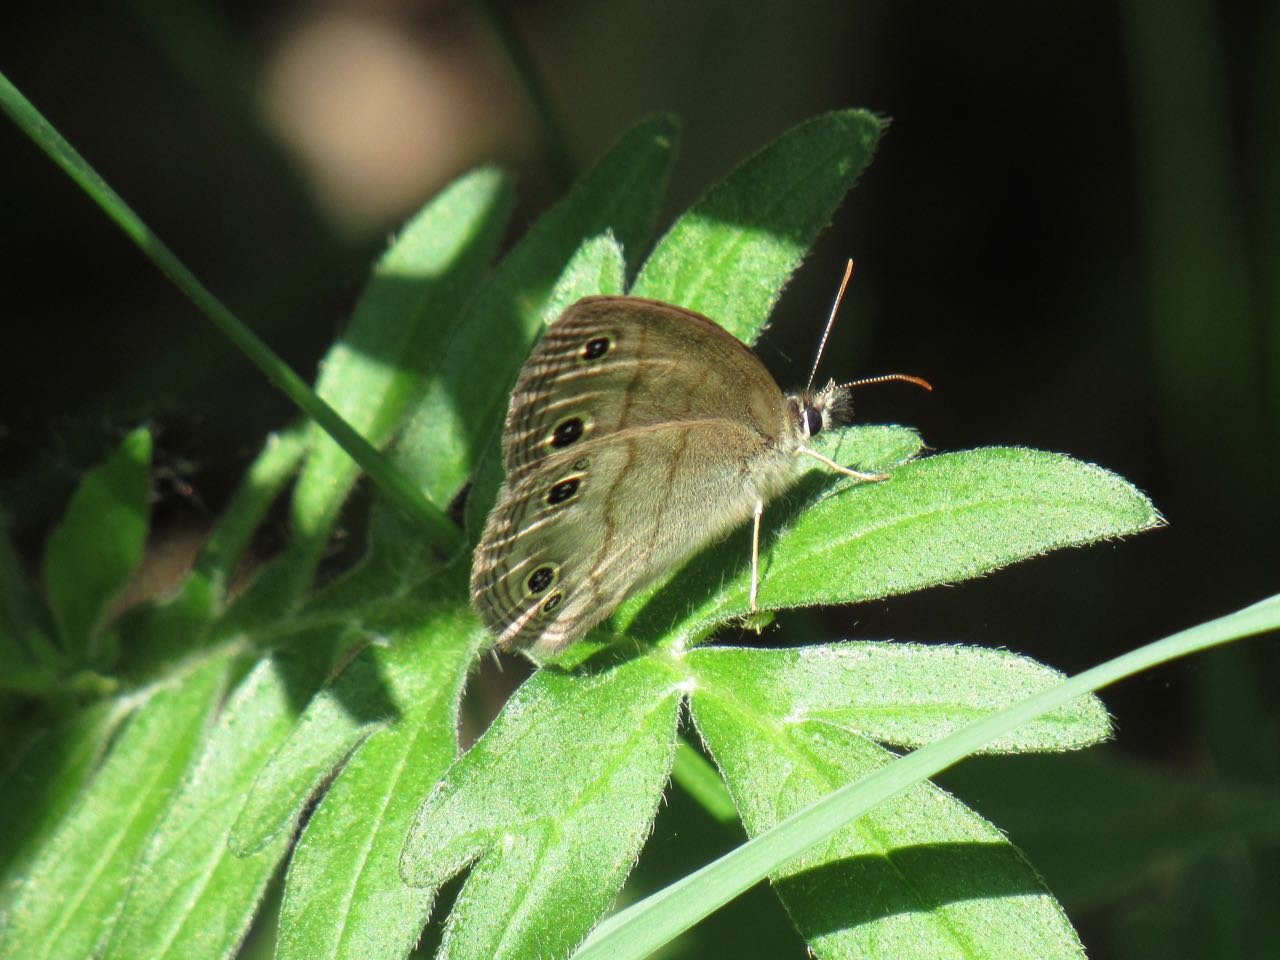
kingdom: Animalia
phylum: Arthropoda
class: Insecta
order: Lepidoptera
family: Nymphalidae
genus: Euptychia
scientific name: Euptychia cymela
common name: Little Wood Satyr
